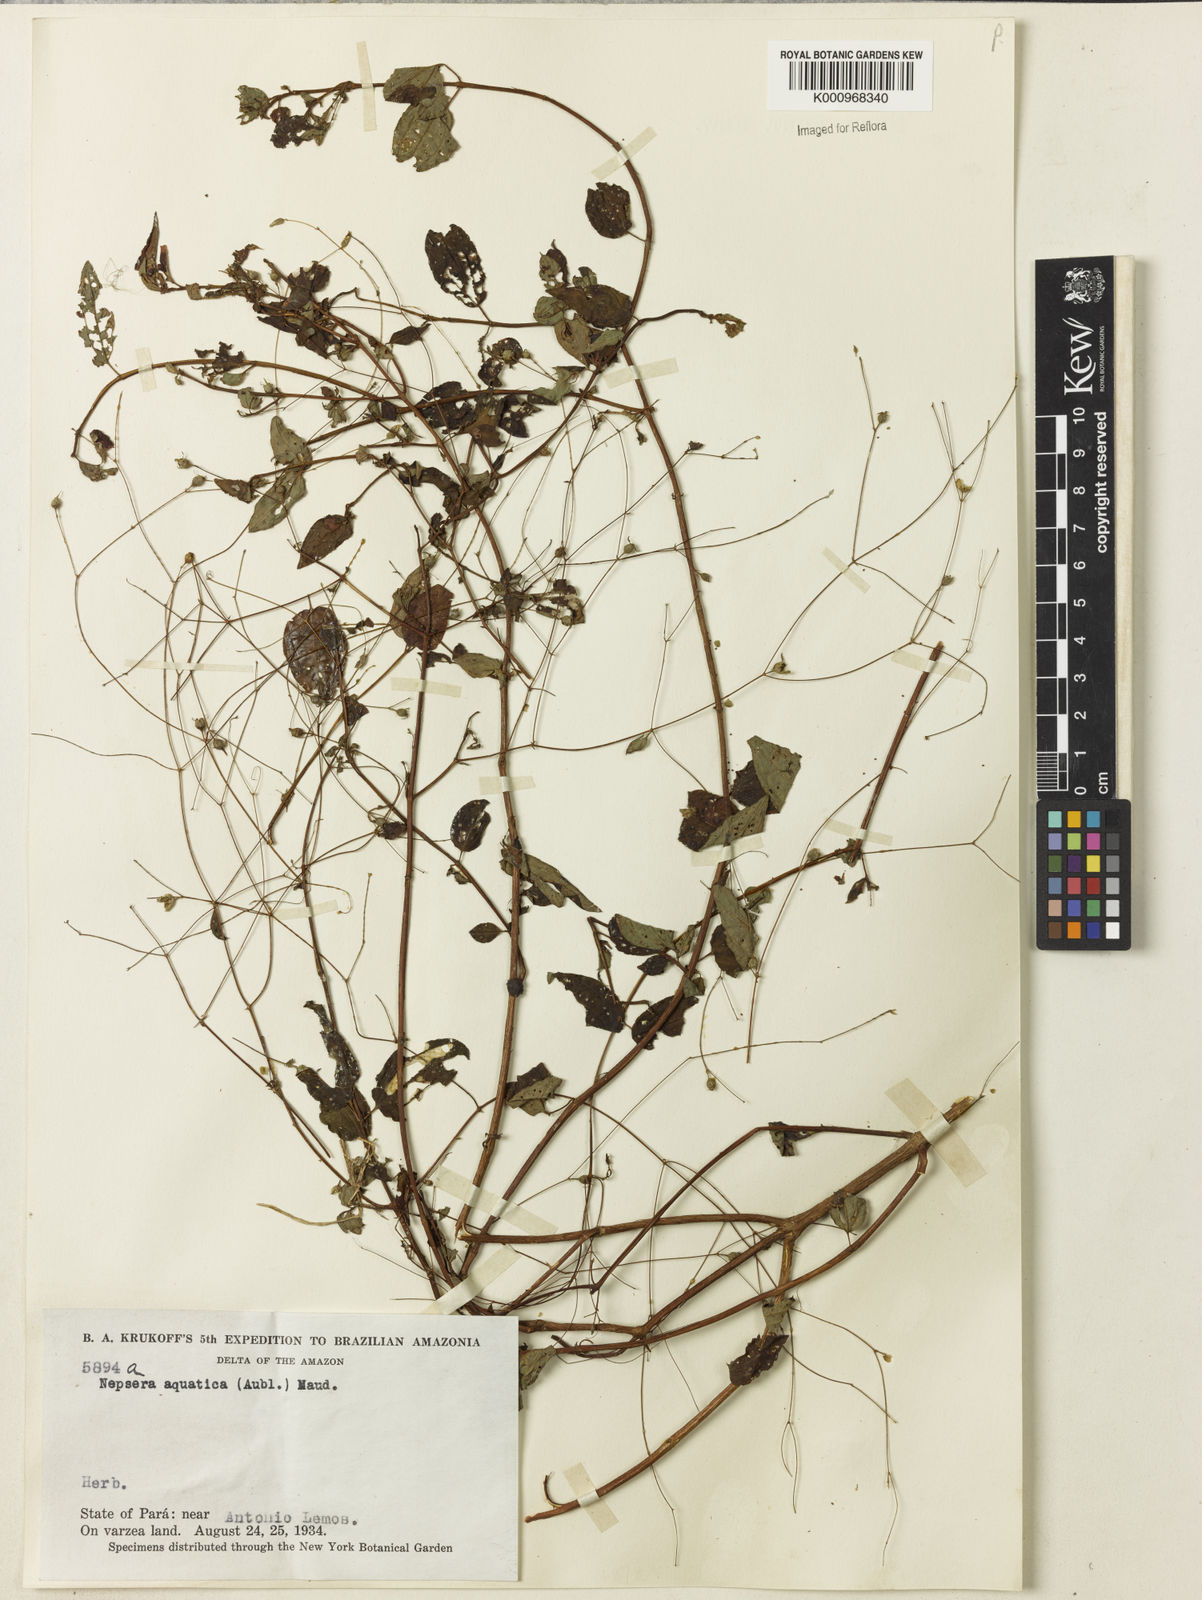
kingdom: Plantae
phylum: Tracheophyta
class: Magnoliopsida
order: Myrtales
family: Melastomataceae
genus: Nepsera
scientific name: Nepsera aquatica
